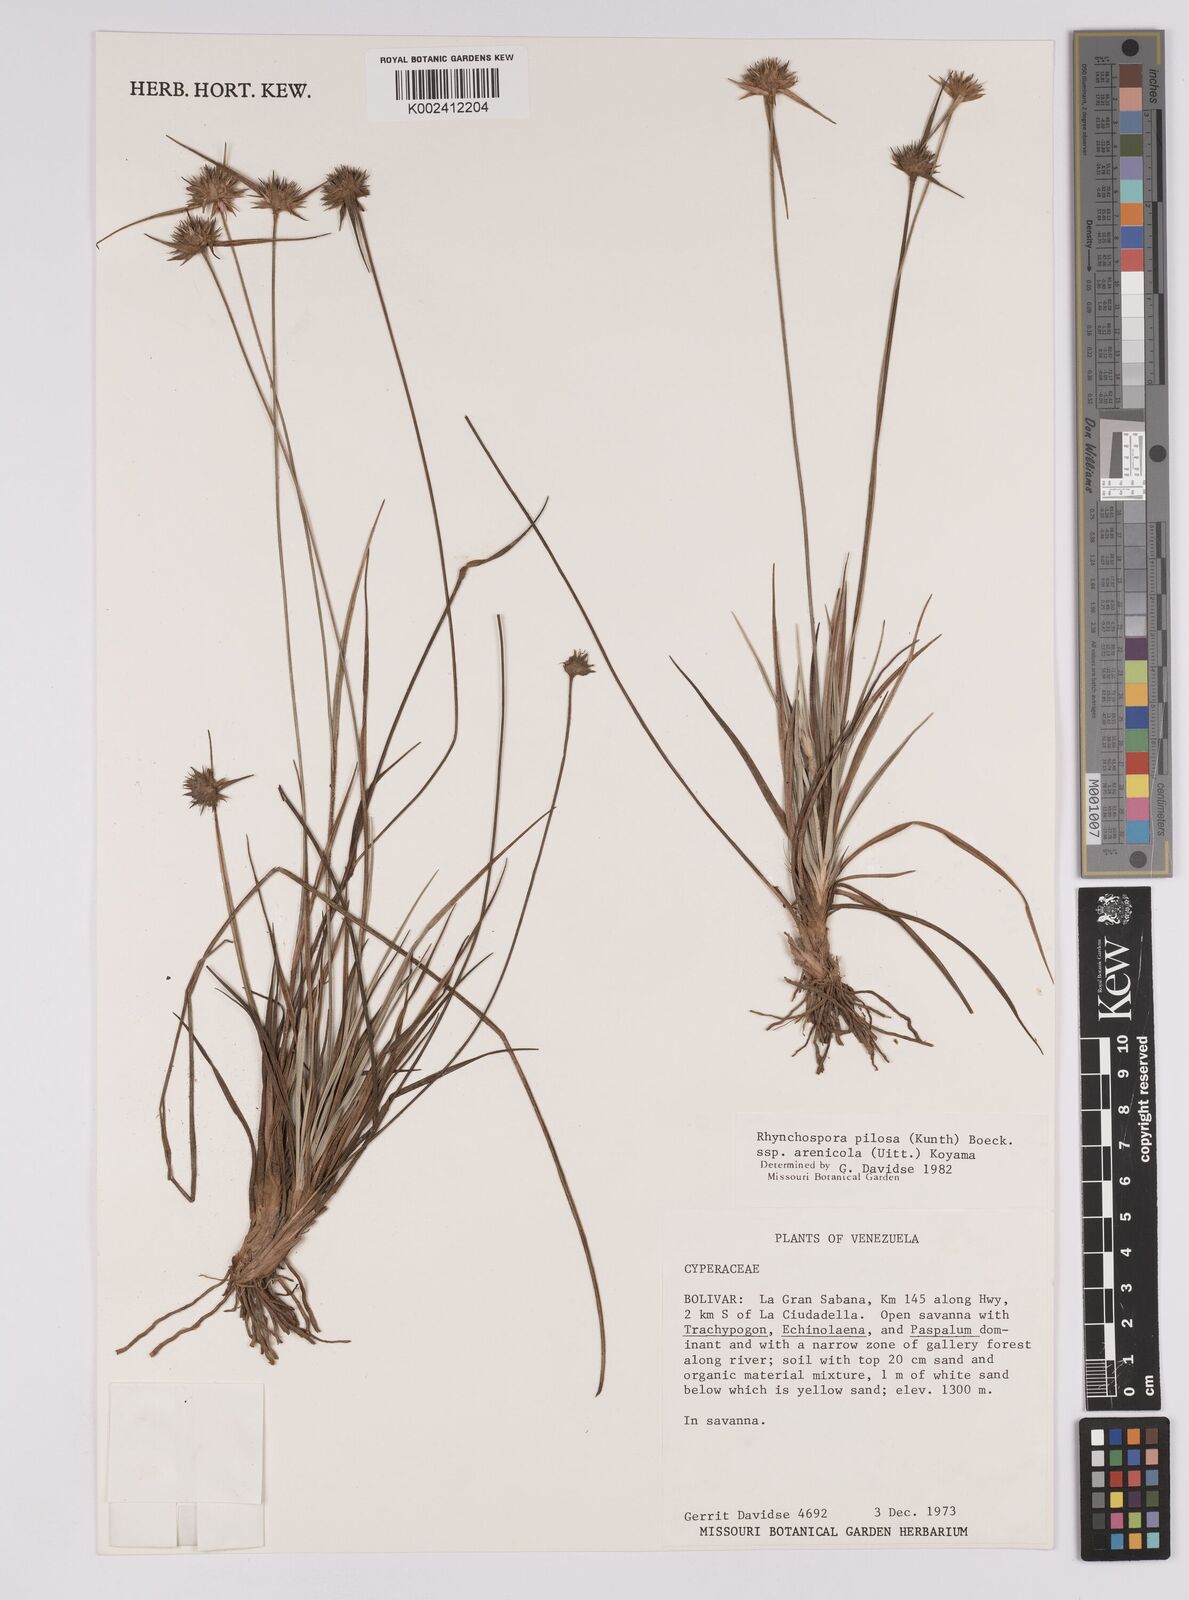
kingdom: Plantae
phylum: Tracheophyta
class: Liliopsida
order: Poales
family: Cyperaceae
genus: Rhynchospora
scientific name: Rhynchospora arenicola
